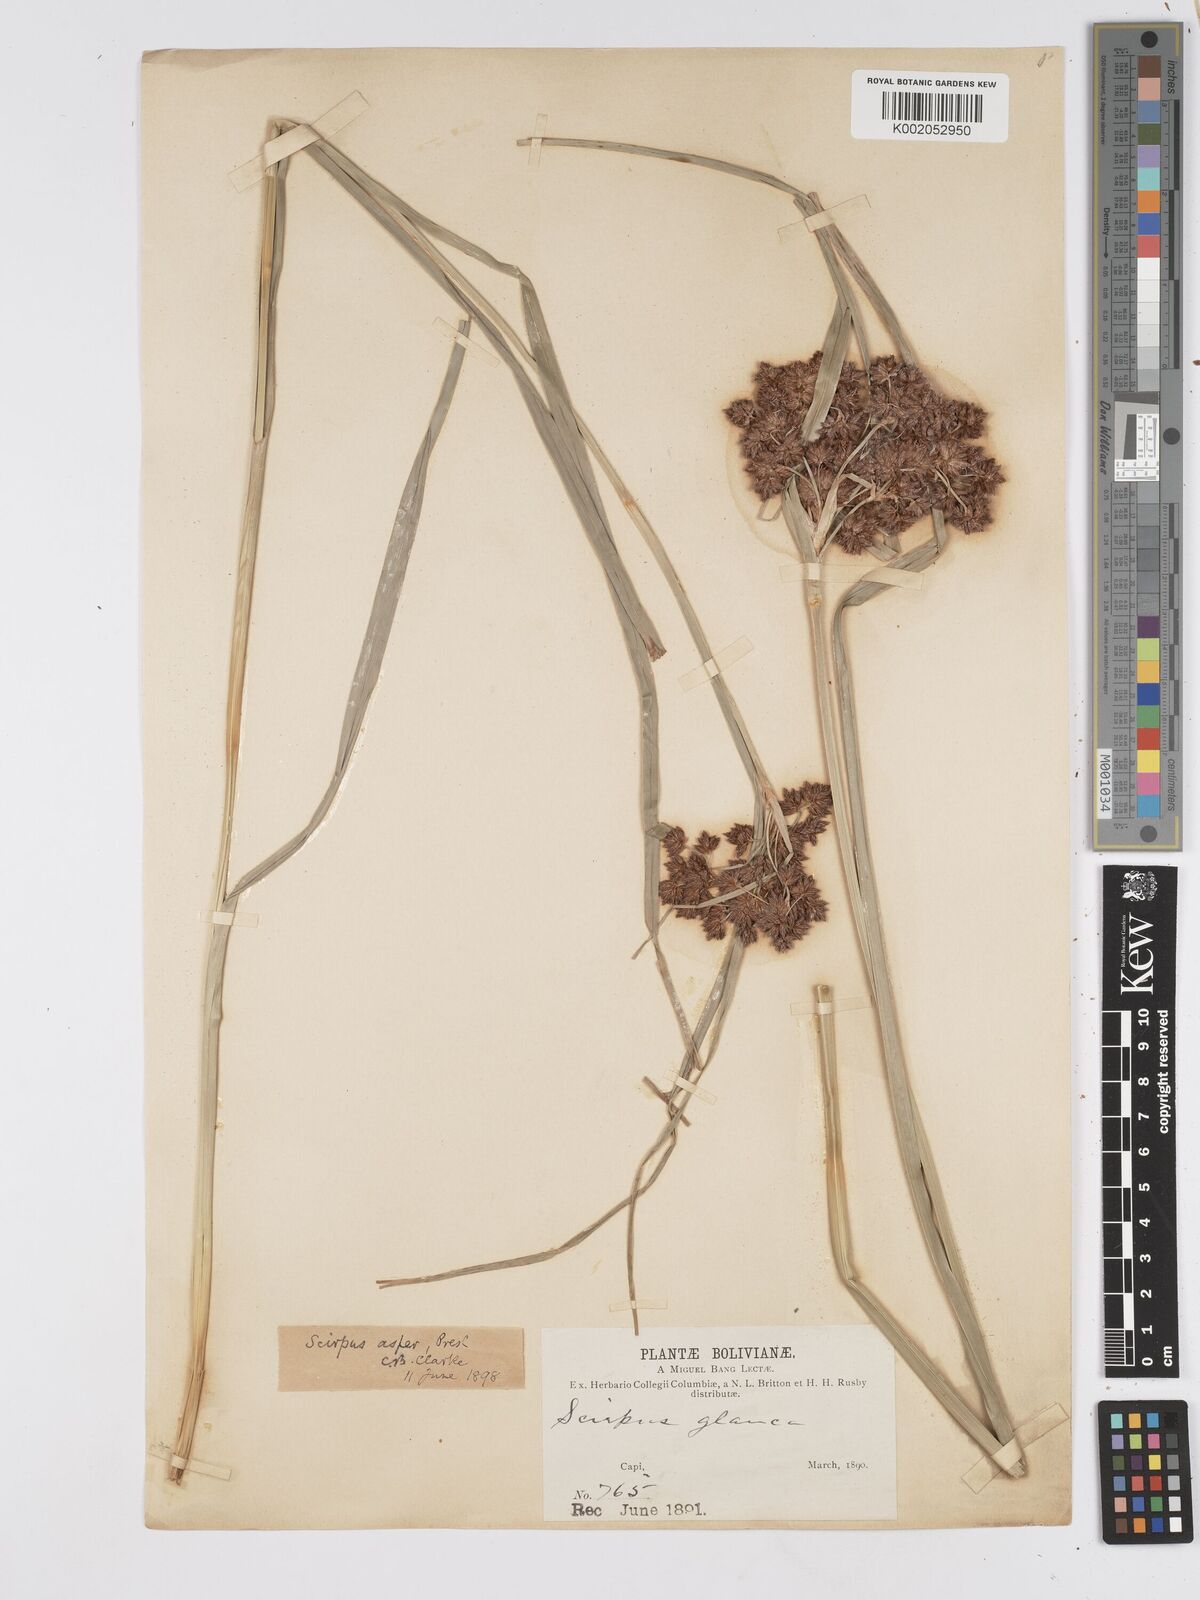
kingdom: Plantae
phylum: Tracheophyta
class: Liliopsida
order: Poales
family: Cyperaceae
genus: Rhodoscirpus
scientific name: Rhodoscirpus asper
